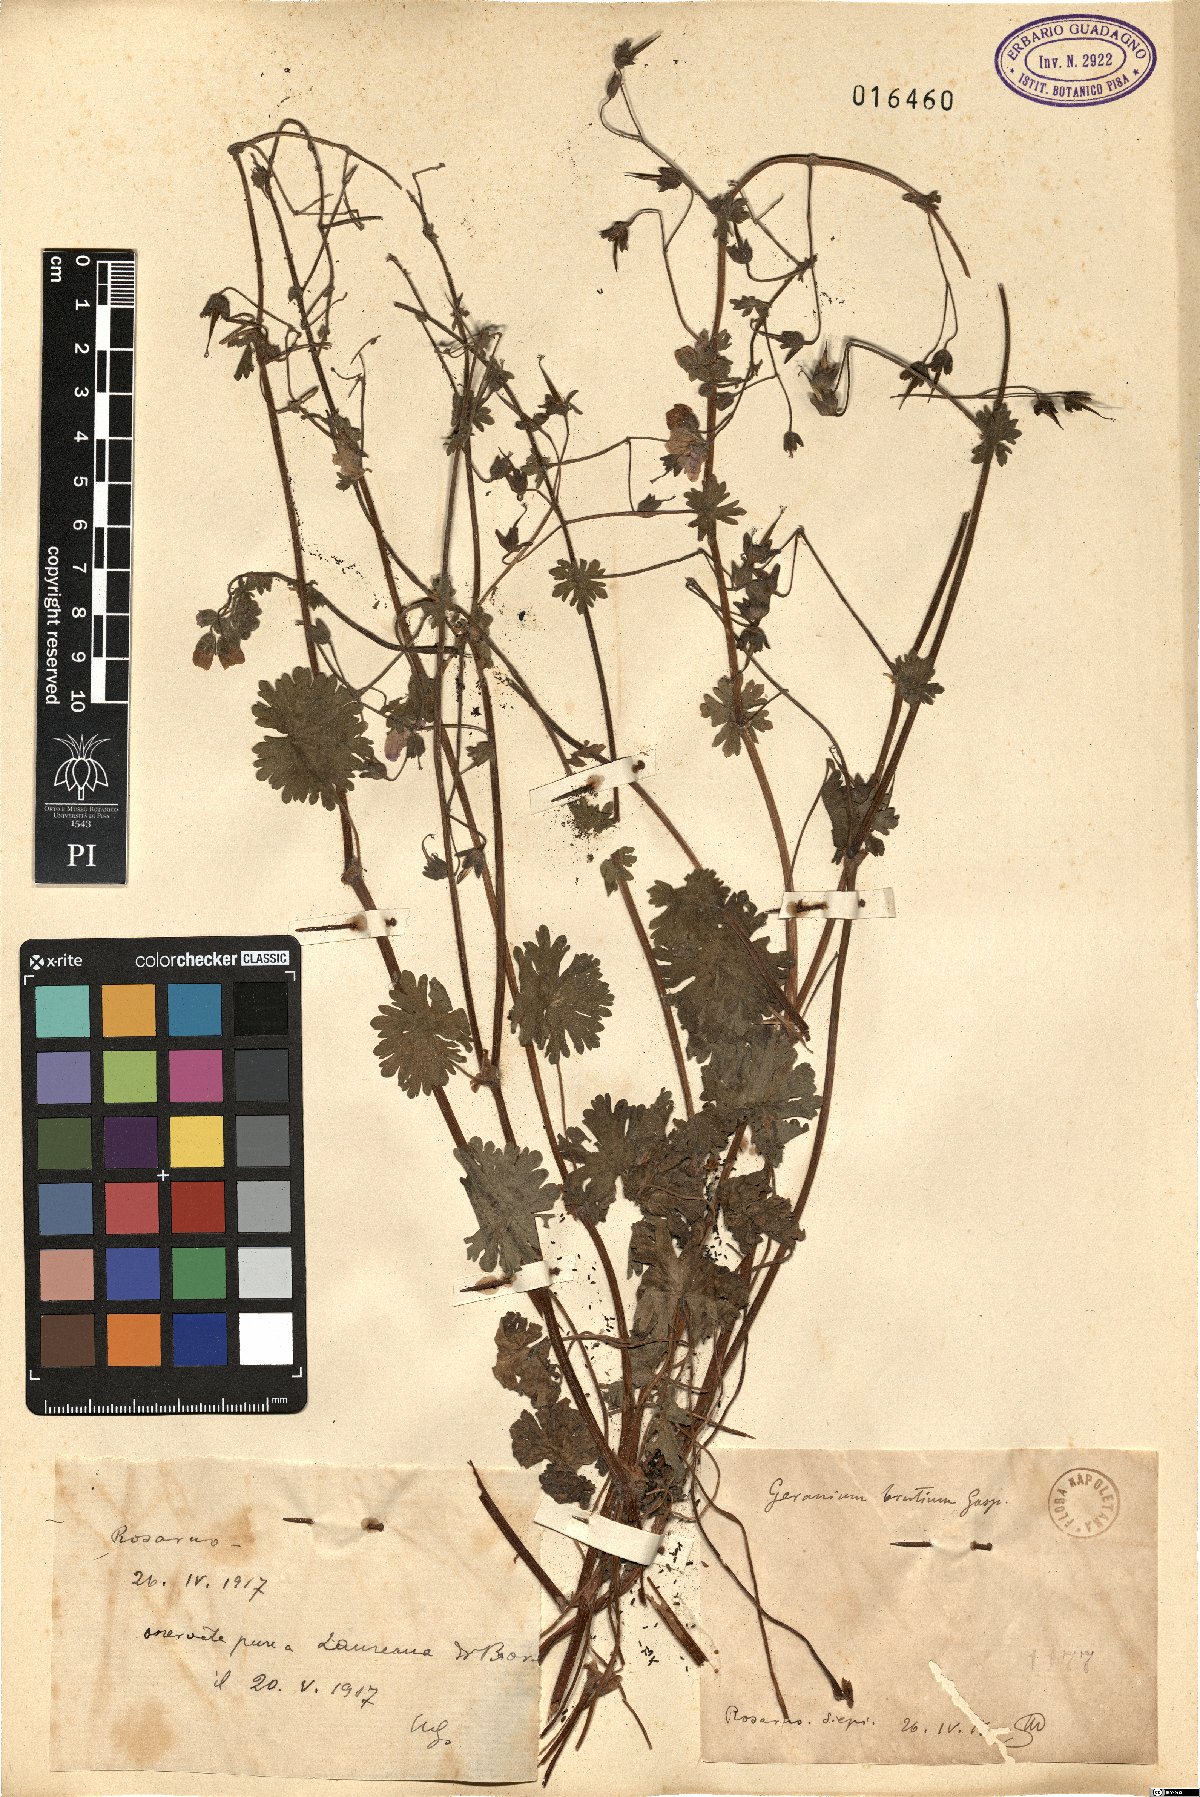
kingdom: Plantae
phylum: Tracheophyta
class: Magnoliopsida
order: Geraniales
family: Geraniaceae
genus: Geranium
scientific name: Geranium molle
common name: Dove's-foot crane's-bill
